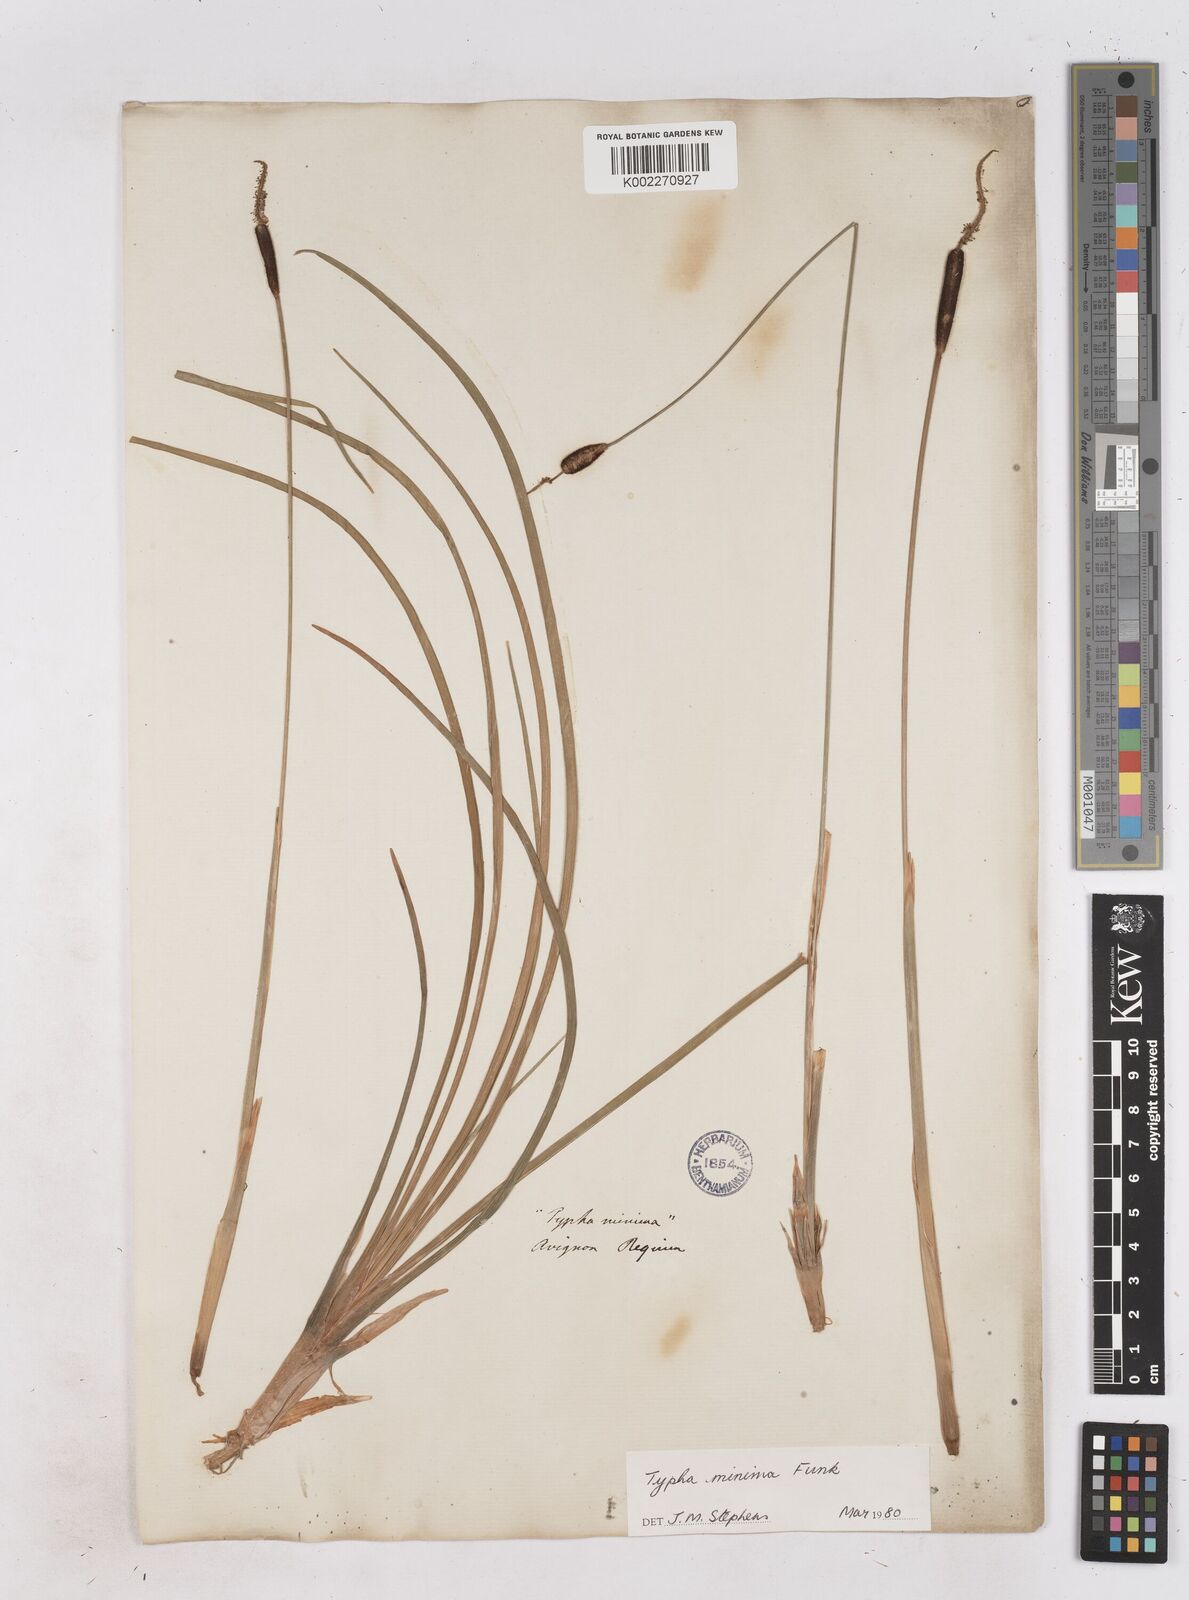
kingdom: Plantae
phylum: Tracheophyta
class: Liliopsida
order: Poales
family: Typhaceae
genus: Typha
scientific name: Typha
